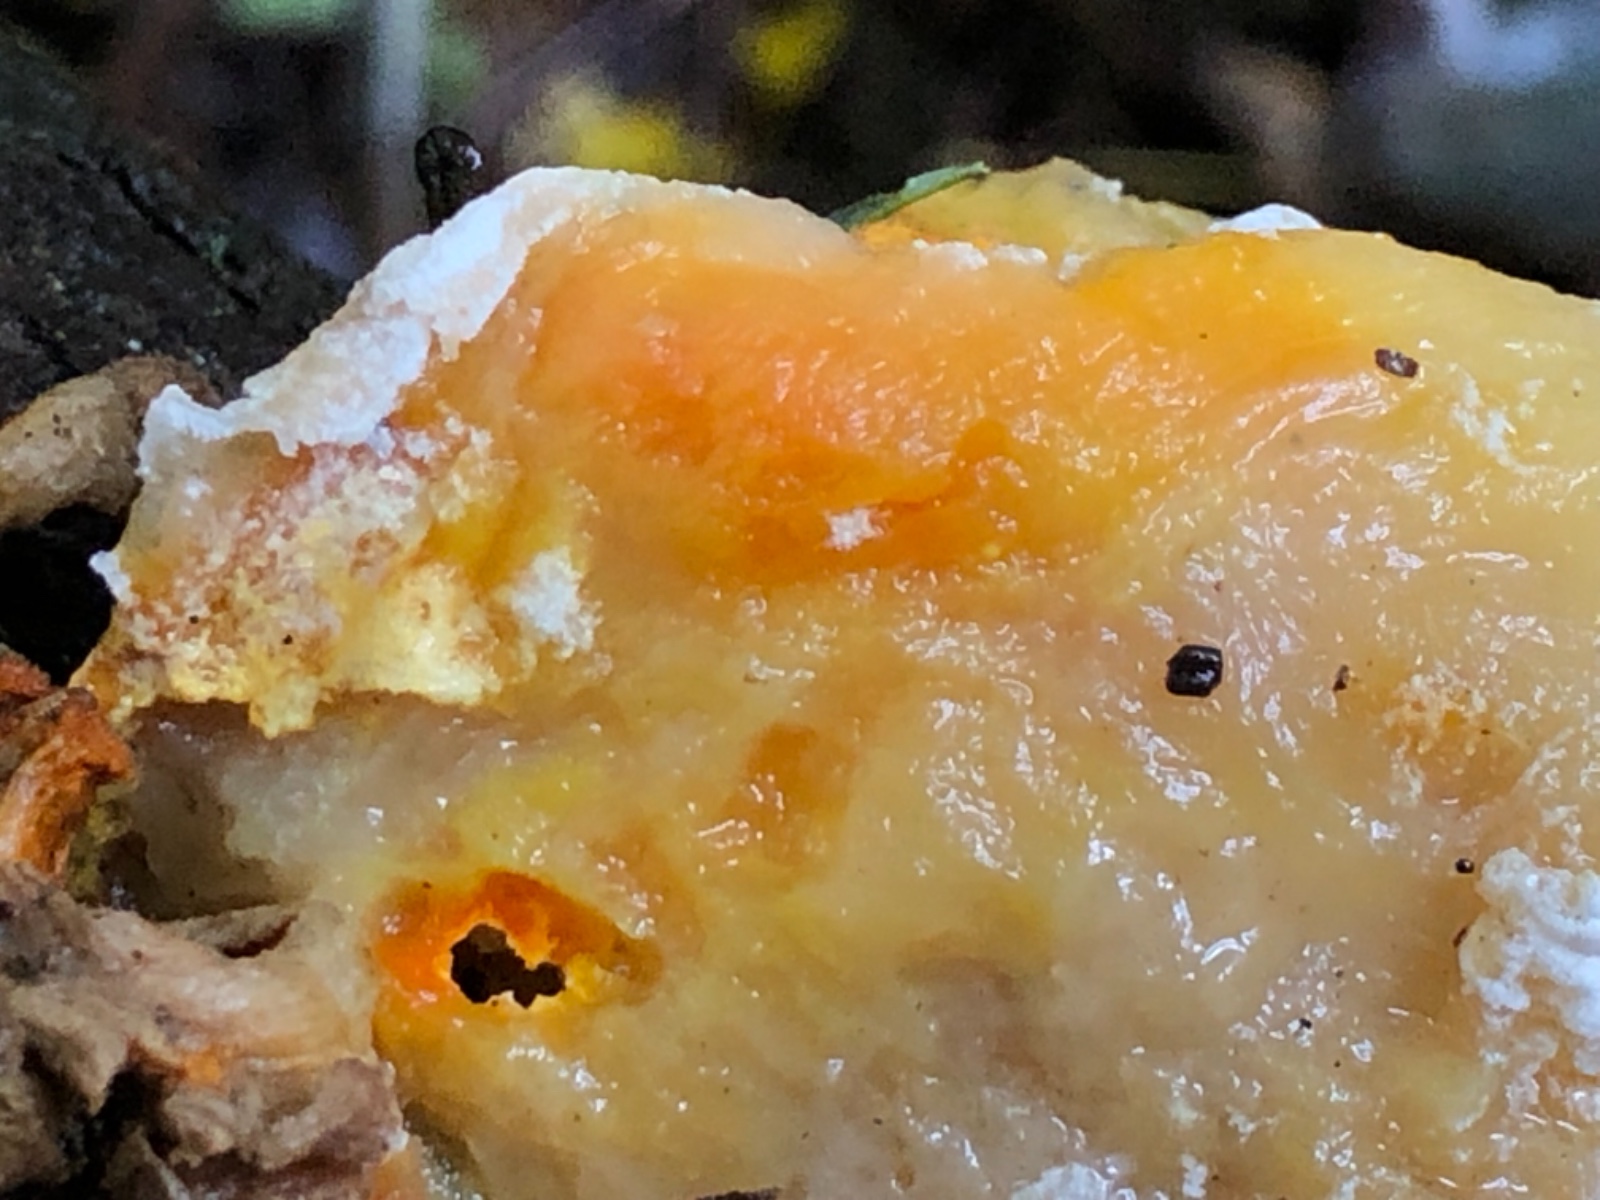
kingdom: Fungi
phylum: Ascomycota
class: Sordariomycetes
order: Hypocreales
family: Hypocreaceae
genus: Hypomyces
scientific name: Hypomyces aurantius
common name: almindelig snylteskorpe
